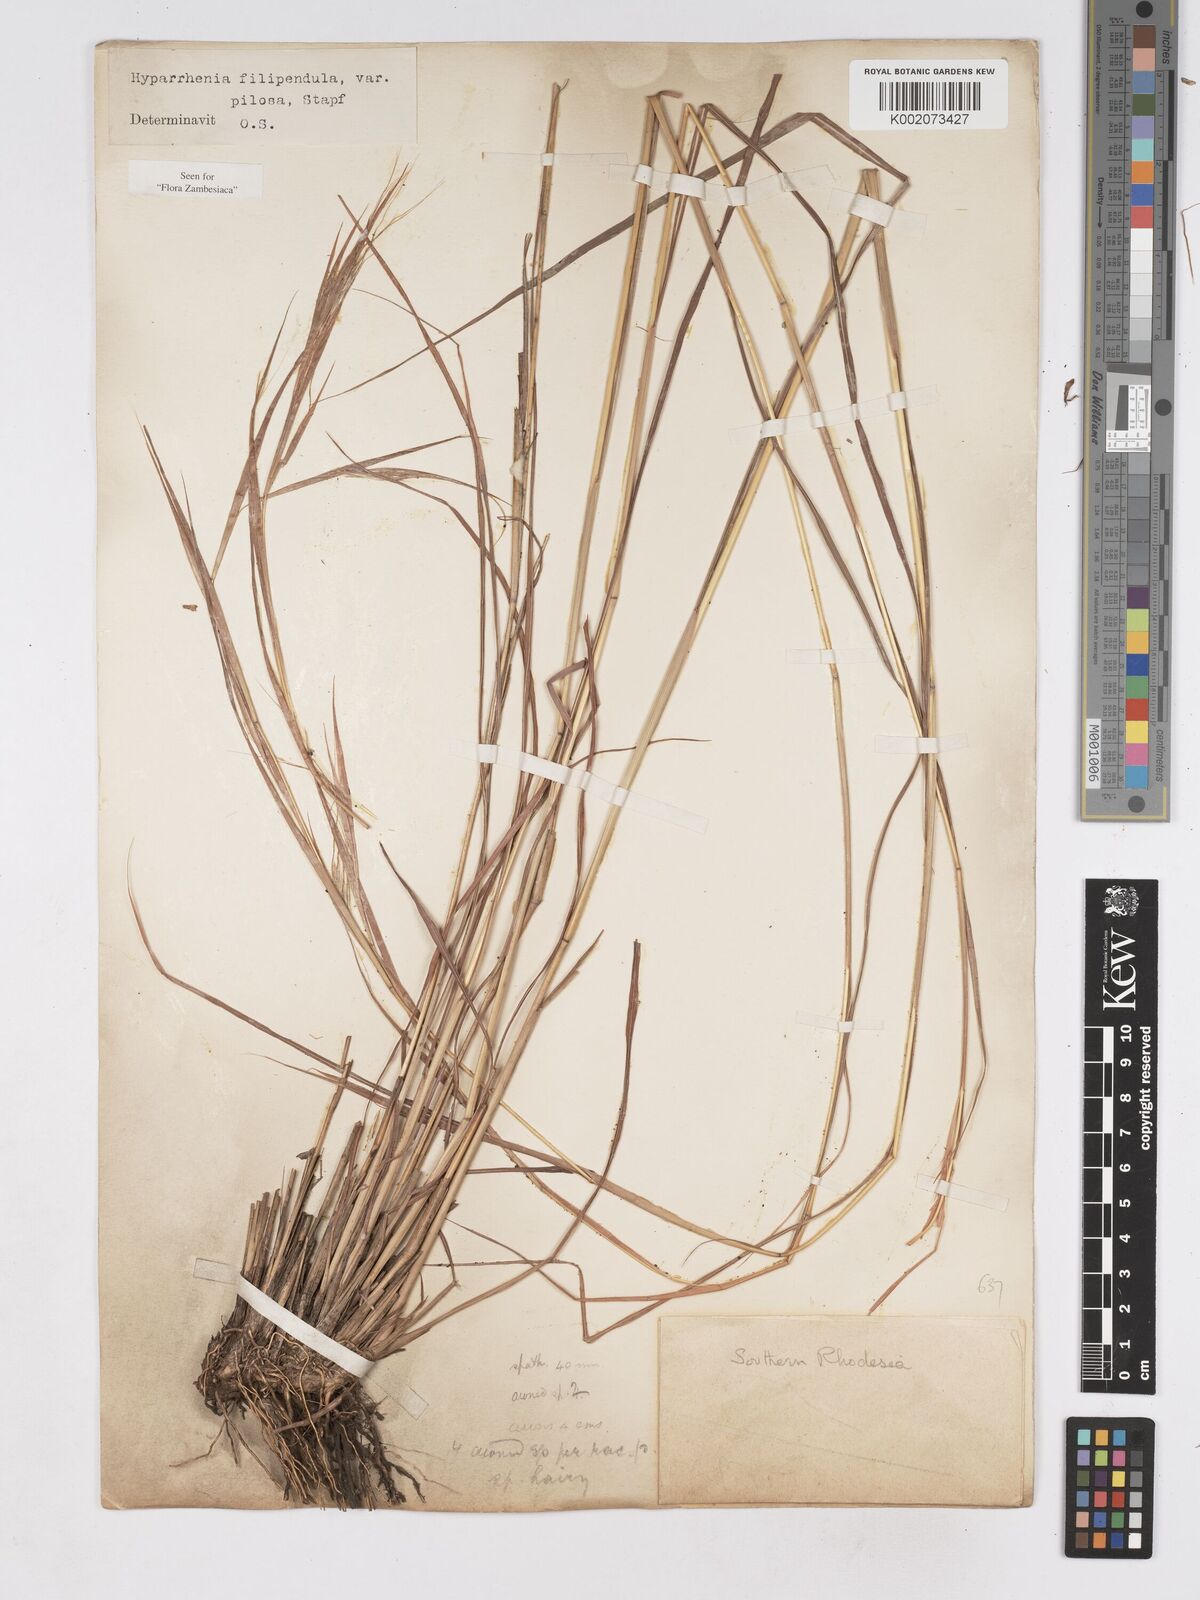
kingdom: Plantae
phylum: Tracheophyta
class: Liliopsida
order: Poales
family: Poaceae
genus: Hyparrhenia
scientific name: Hyparrhenia filipendula
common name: Tambookie grass
